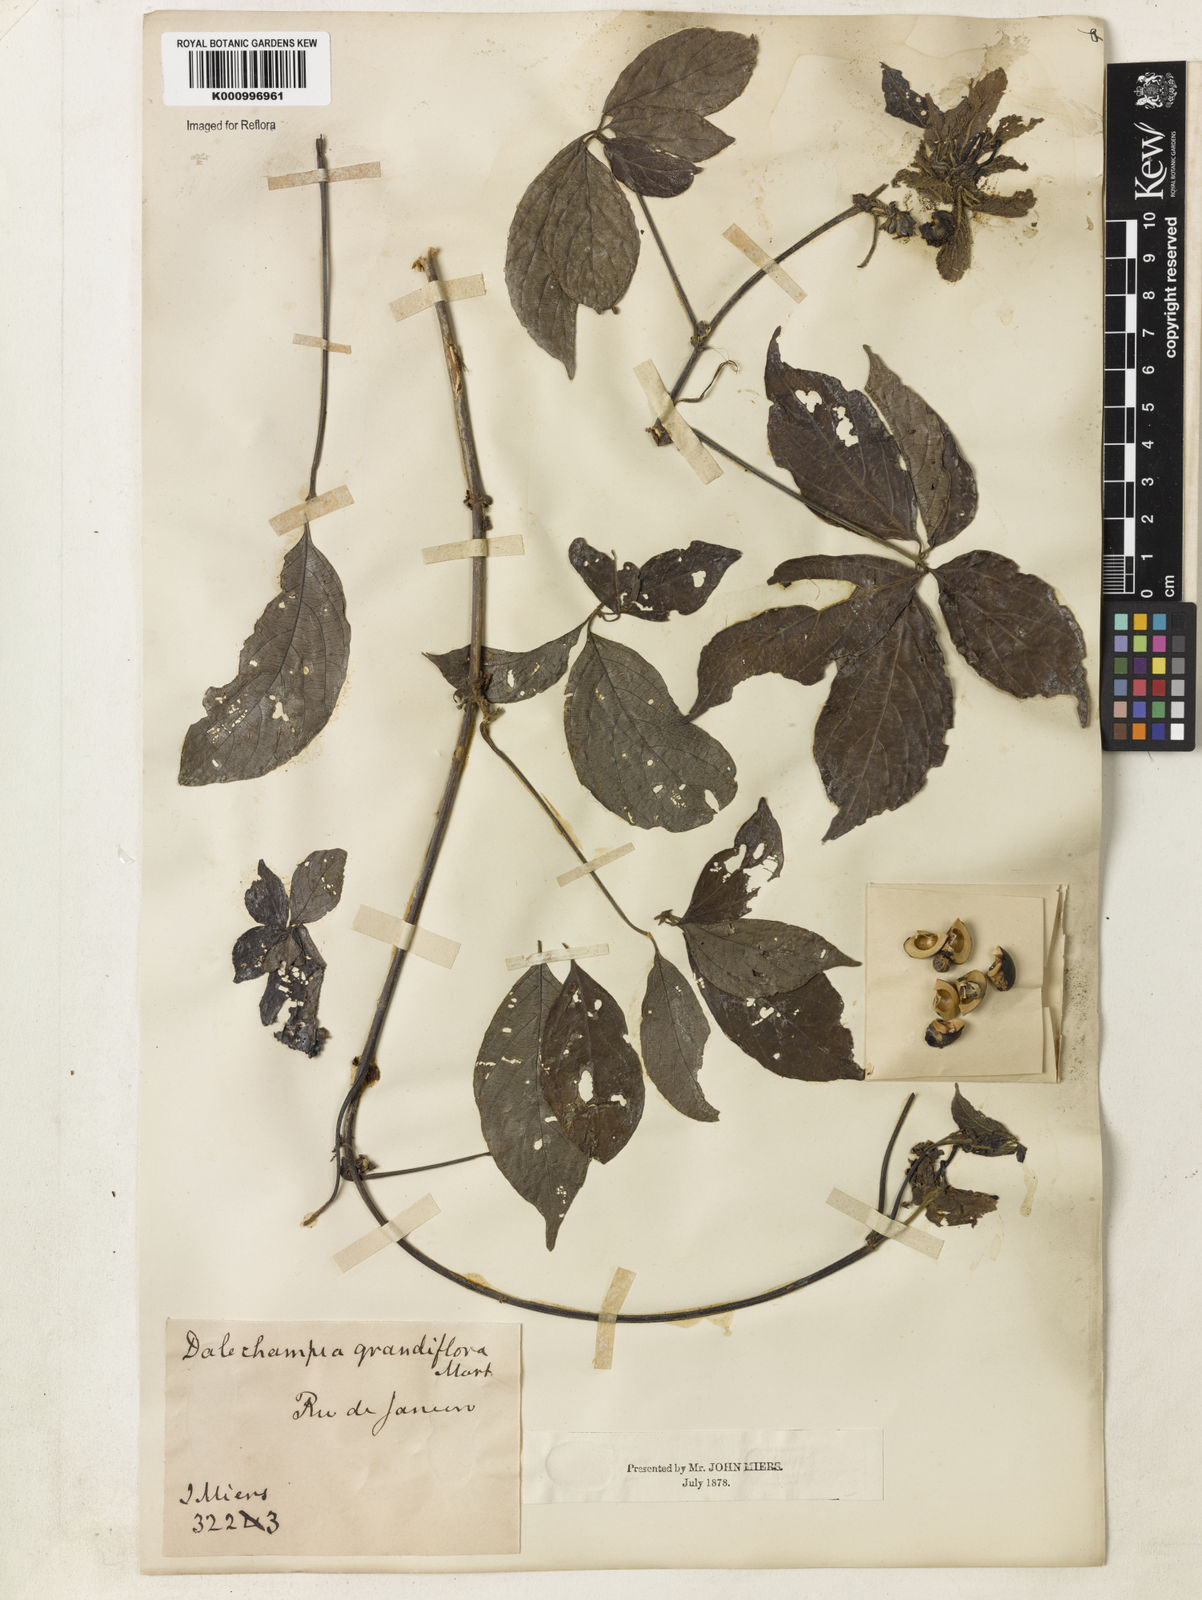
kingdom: Plantae
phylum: Tracheophyta
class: Magnoliopsida
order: Malpighiales
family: Euphorbiaceae
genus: Dalechampia
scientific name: Dalechampia pentaphylla
